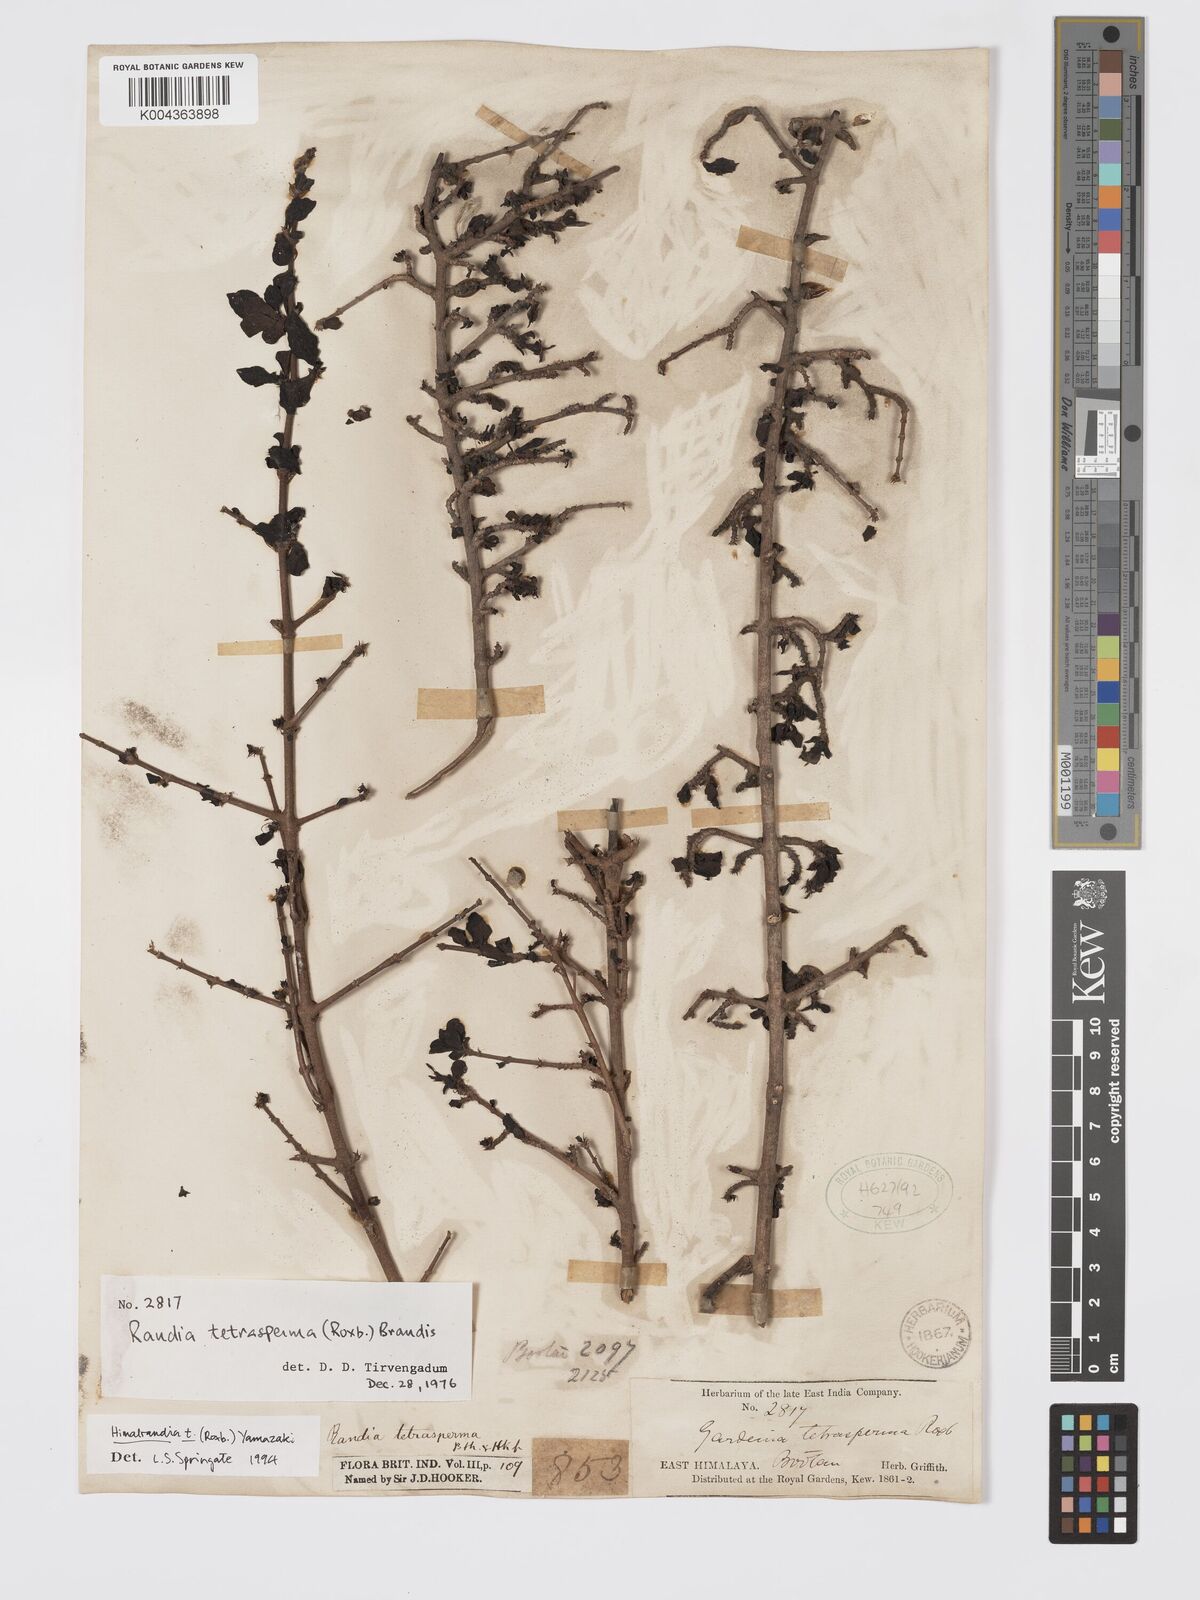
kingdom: Plantae
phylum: Tracheophyta
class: Magnoliopsida
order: Gentianales
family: Rubiaceae
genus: Himalrandia
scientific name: Himalrandia tetrasperma
